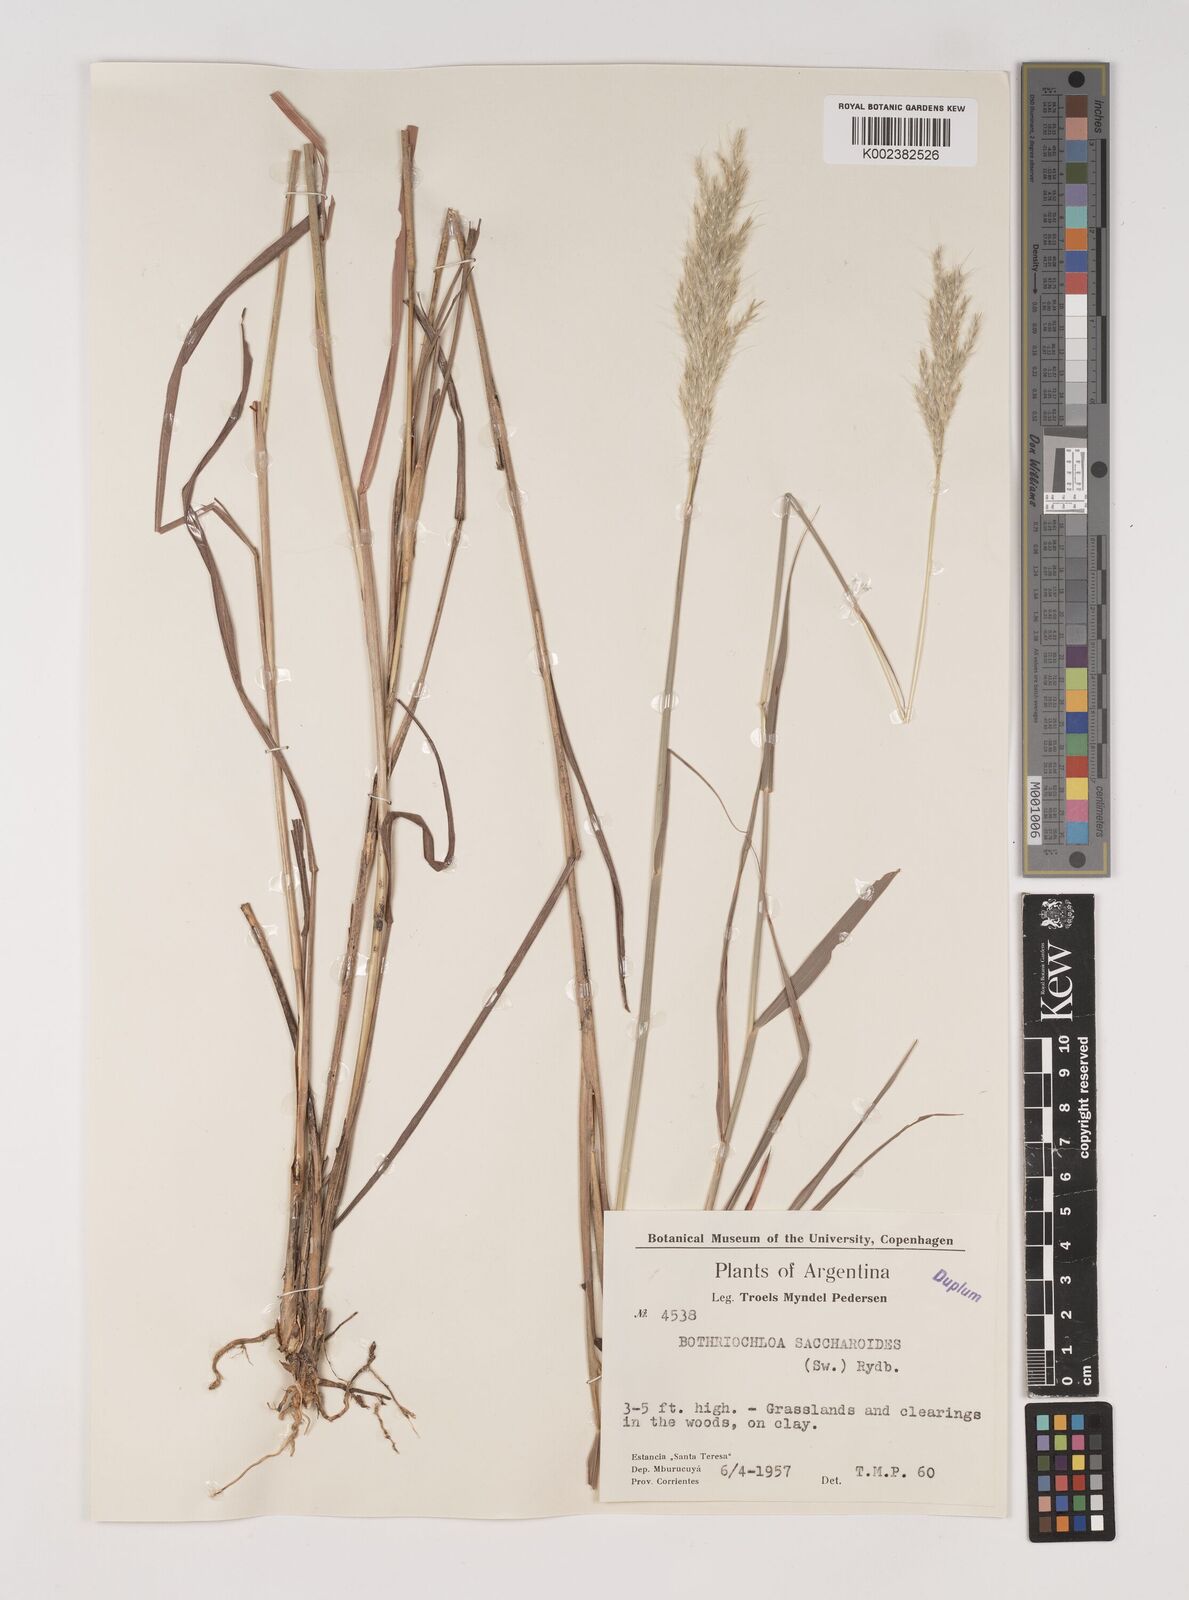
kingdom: Plantae
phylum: Tracheophyta
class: Liliopsida
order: Poales
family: Poaceae
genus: Bothriochloa
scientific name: Bothriochloa saccharoides
